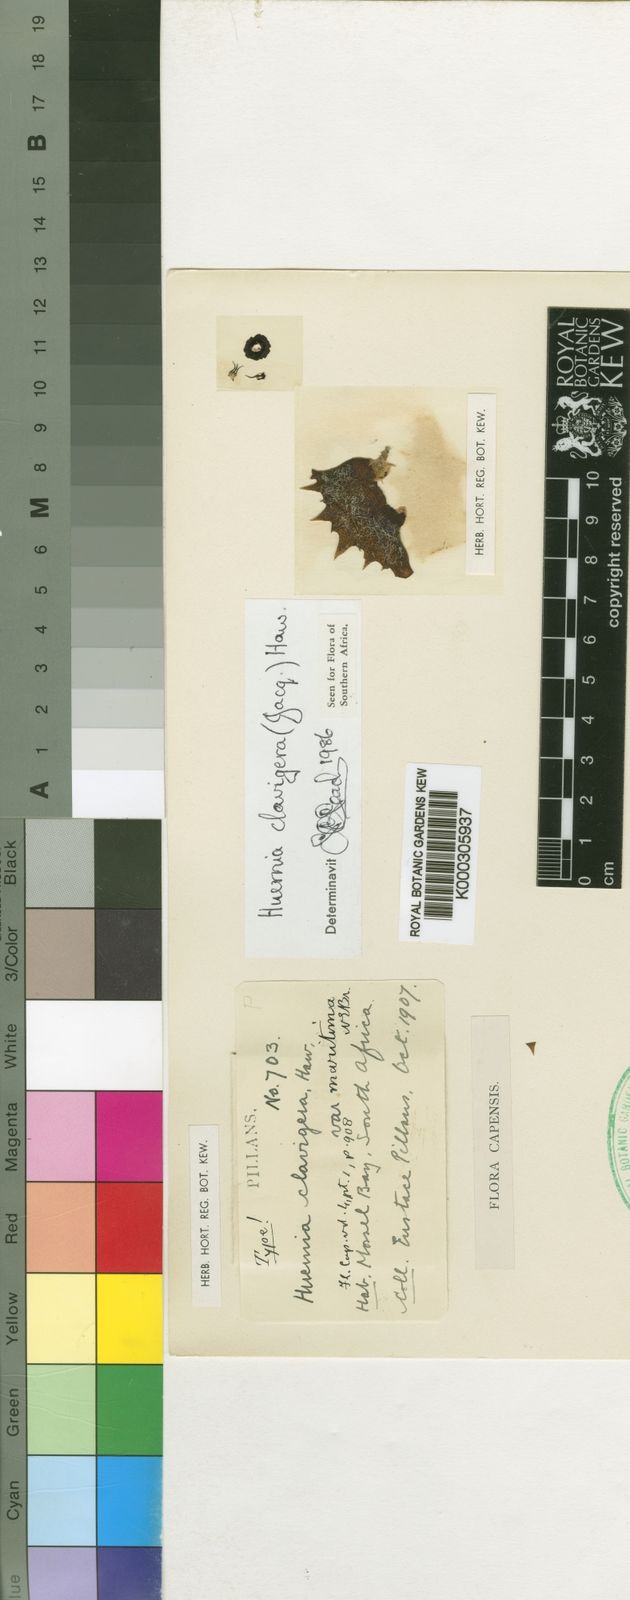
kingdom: Plantae
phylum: Tracheophyta
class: Magnoliopsida
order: Gentianales
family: Apocynaceae
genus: Ceropegia
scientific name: Ceropegia clavigera
